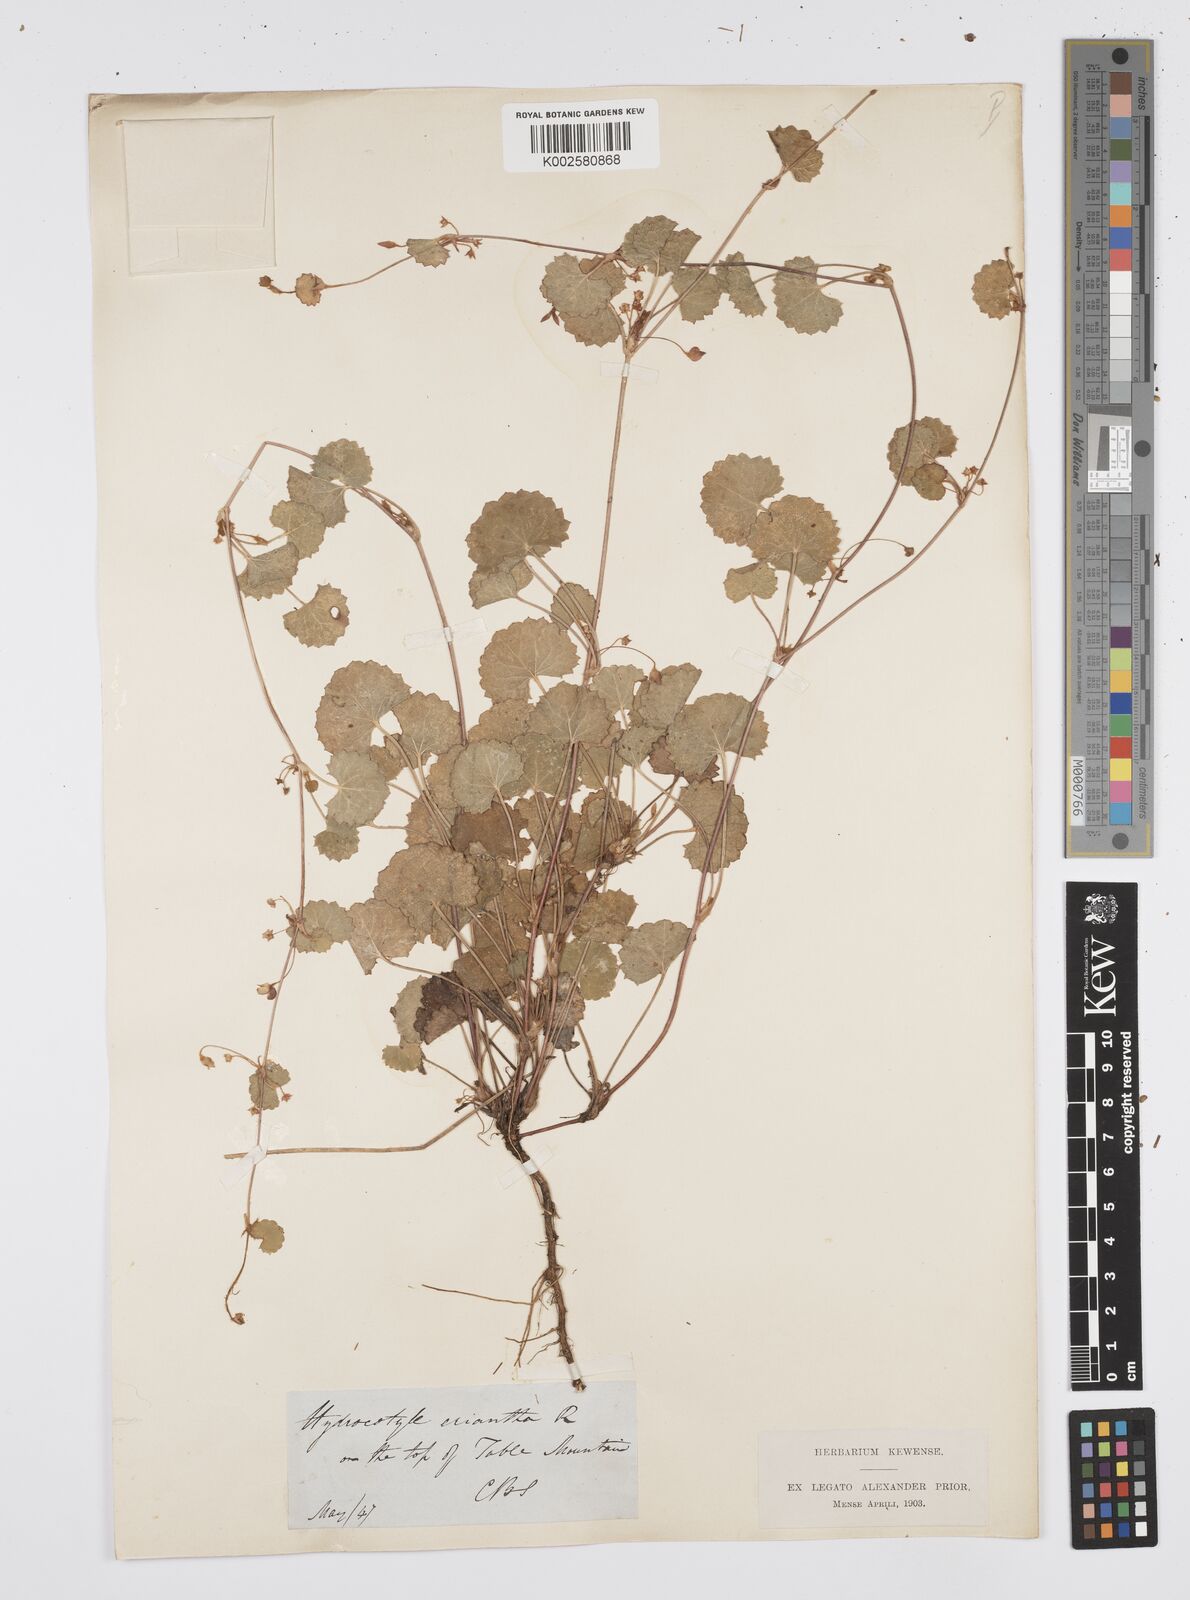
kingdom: Plantae
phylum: Tracheophyta
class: Magnoliopsida
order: Apiales
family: Apiaceae
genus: Centella
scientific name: Centella eriantha
